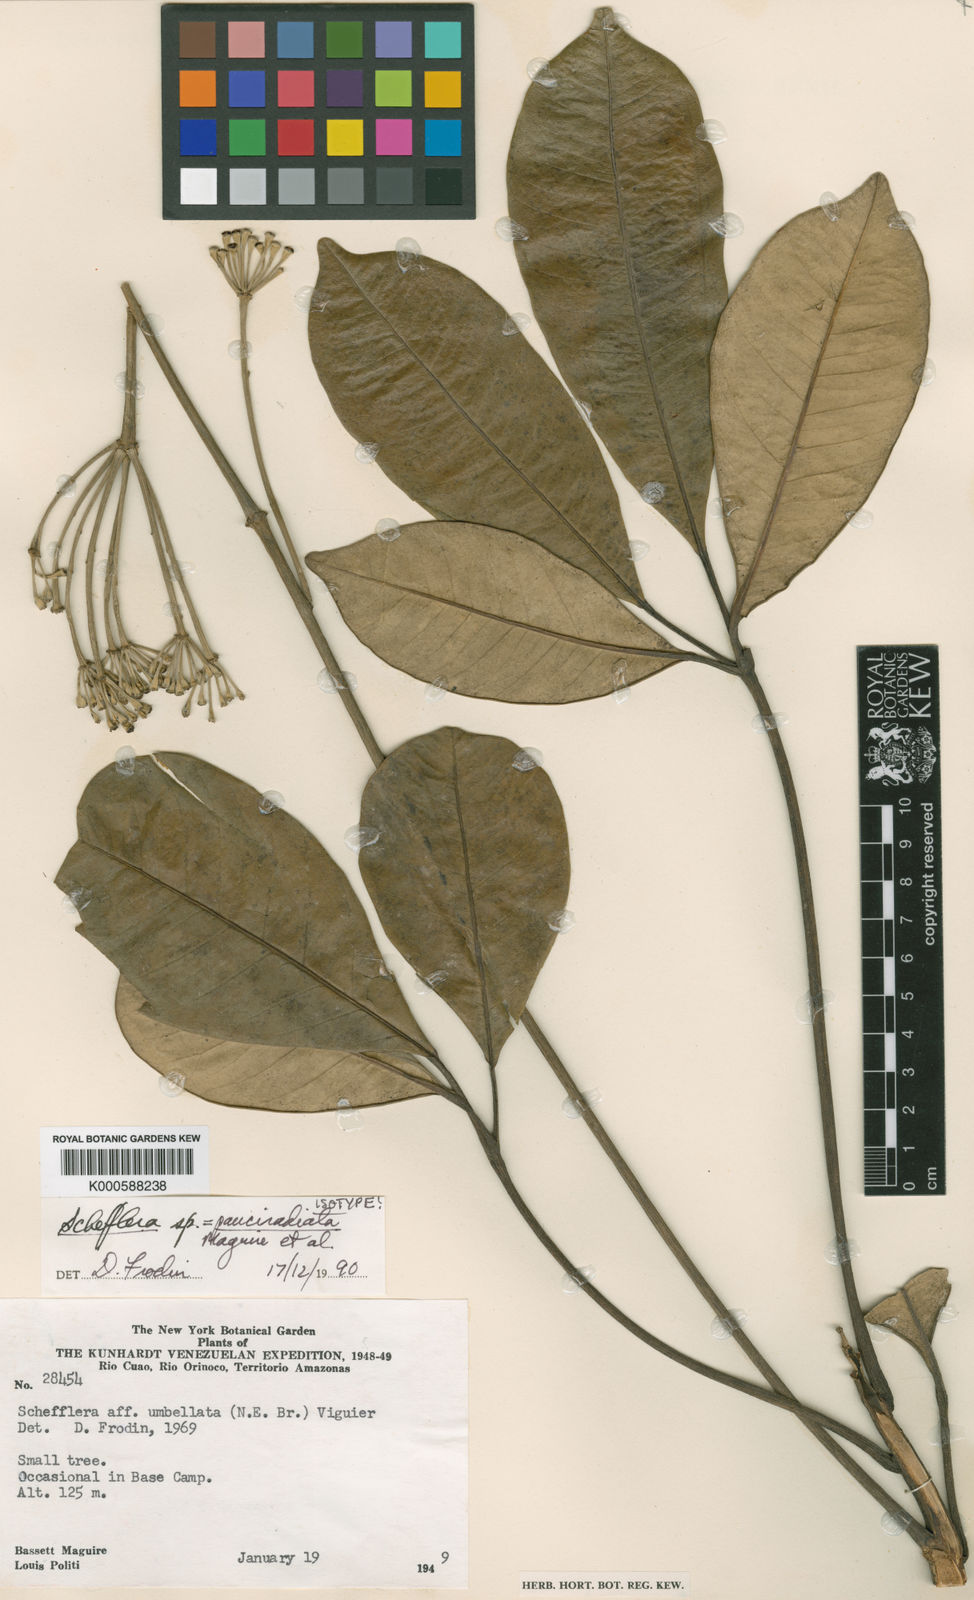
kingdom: Plantae
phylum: Tracheophyta
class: Magnoliopsida
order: Apiales
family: Araliaceae
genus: Crepinella
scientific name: Crepinella
